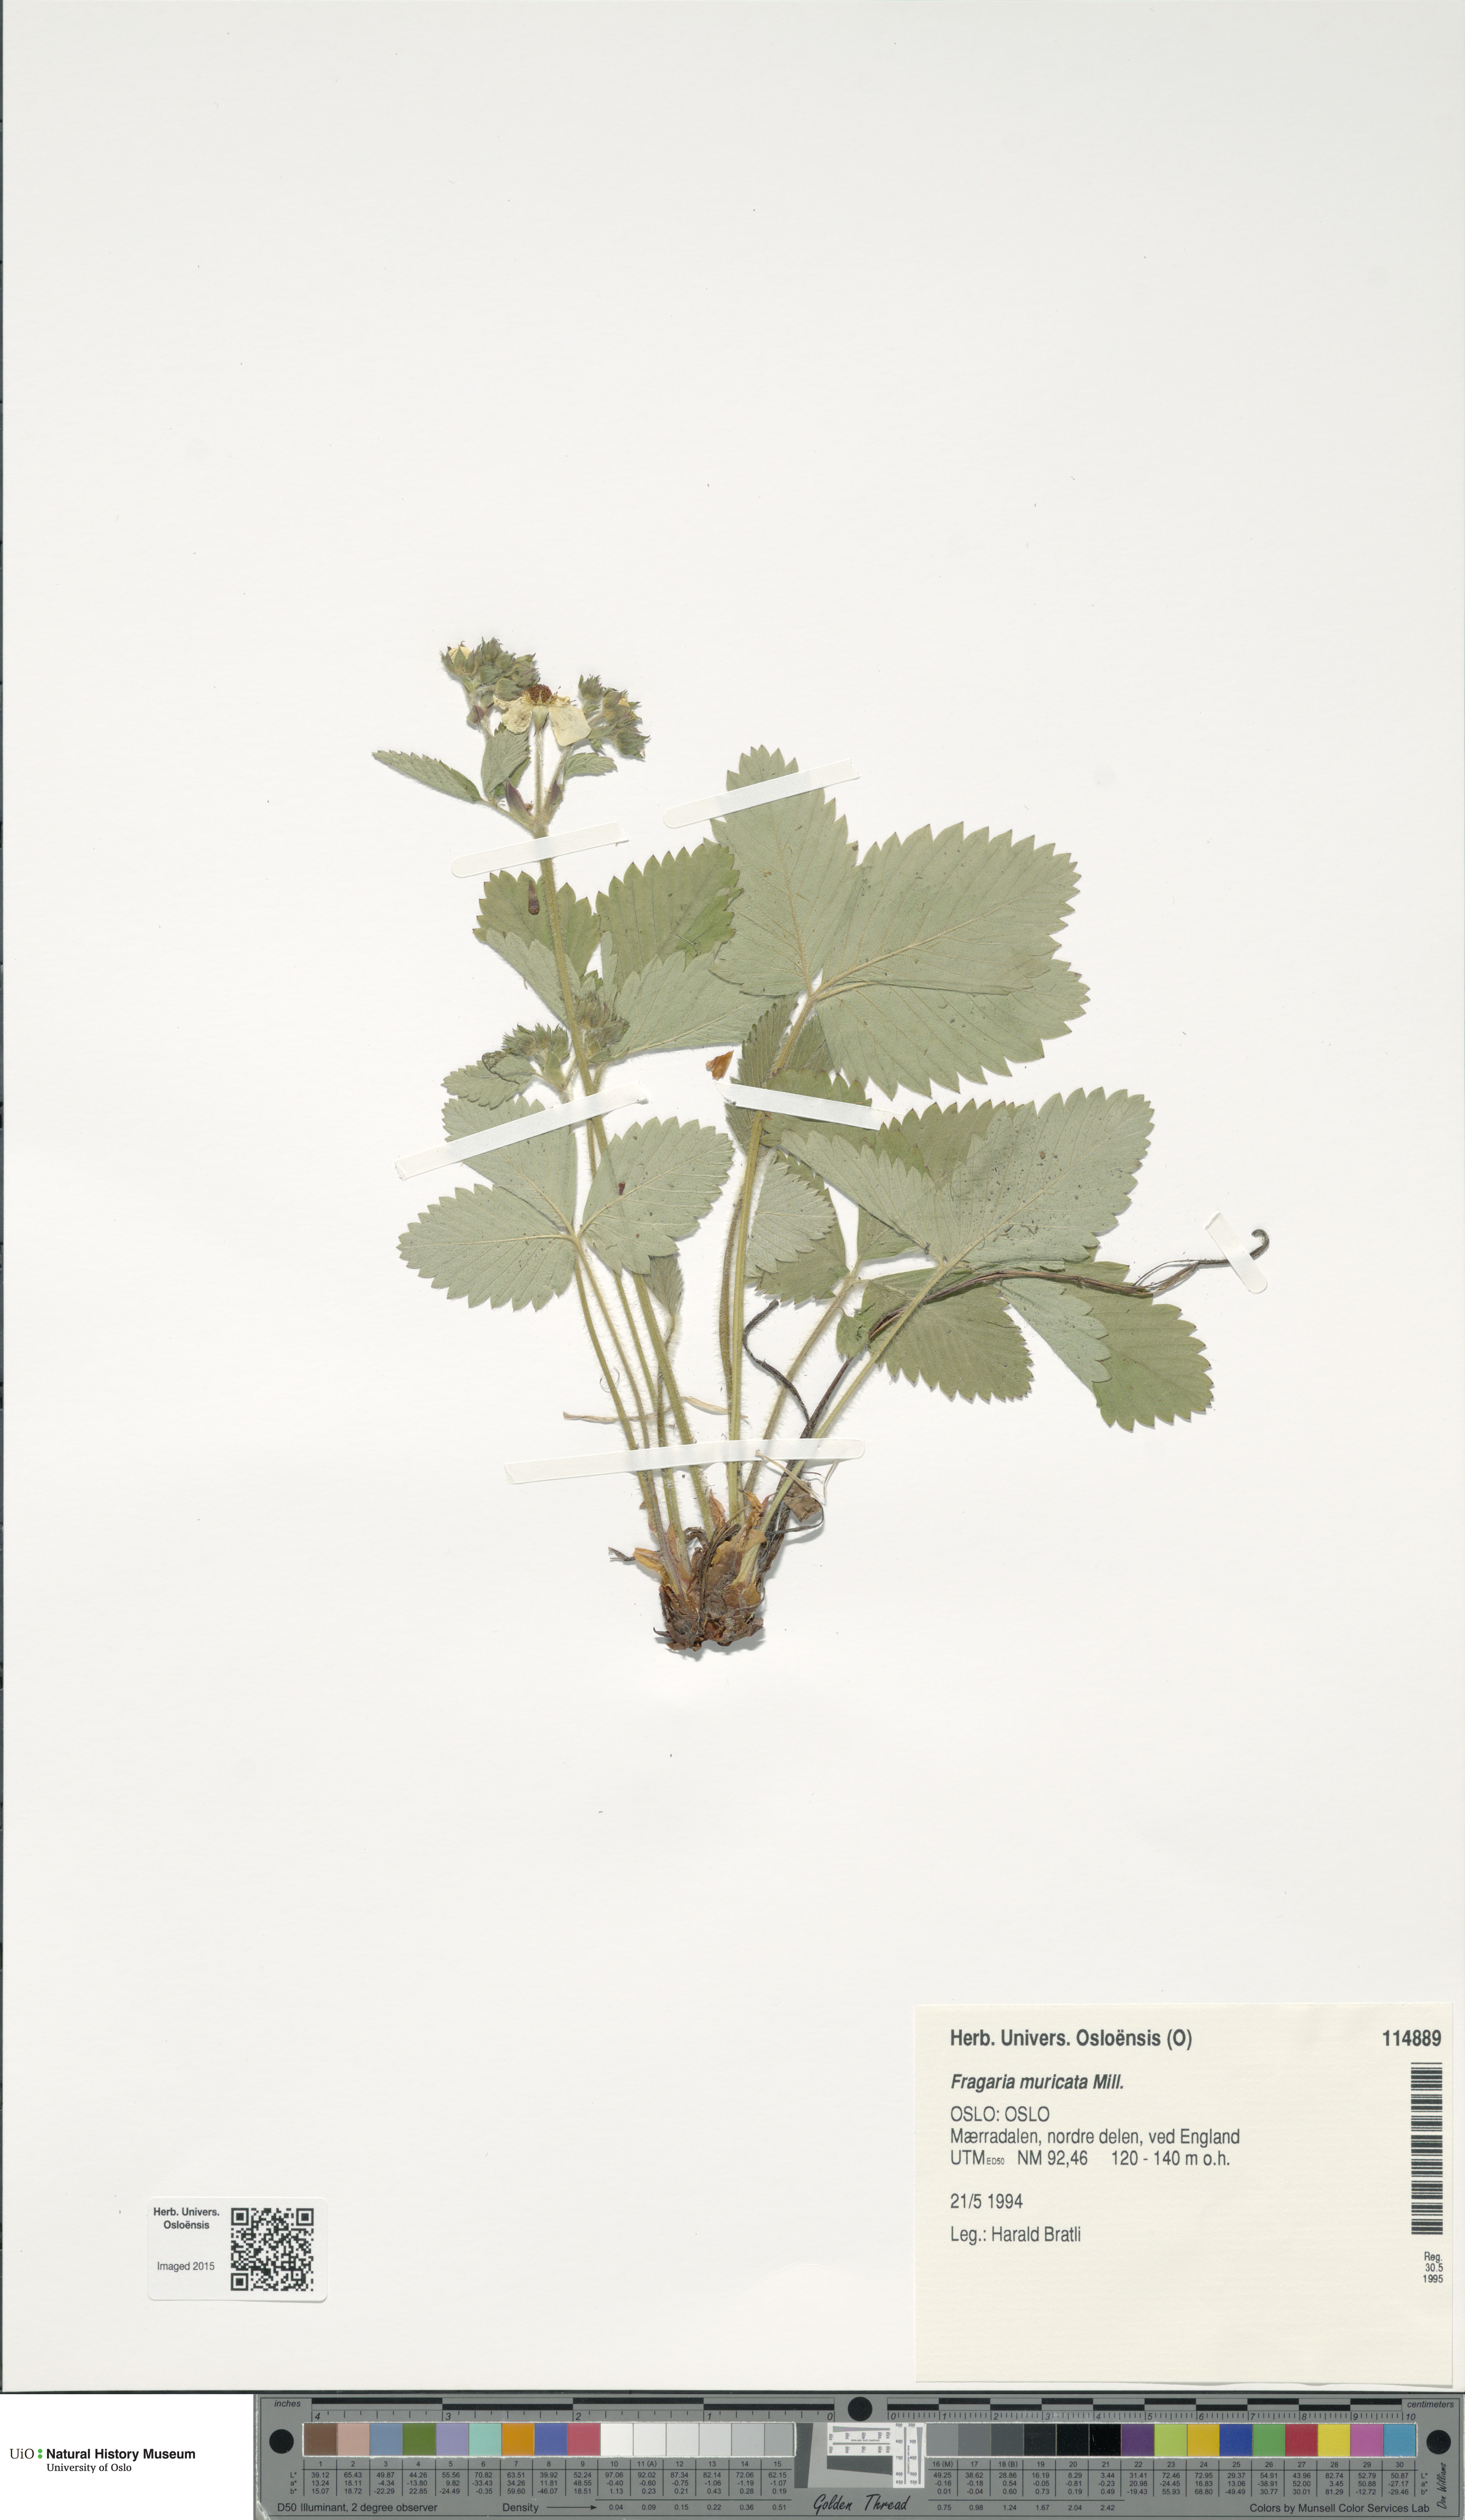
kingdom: Plantae
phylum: Tracheophyta
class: Magnoliopsida
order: Rosales
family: Rosaceae
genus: Fragaria
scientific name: Fragaria moschata
